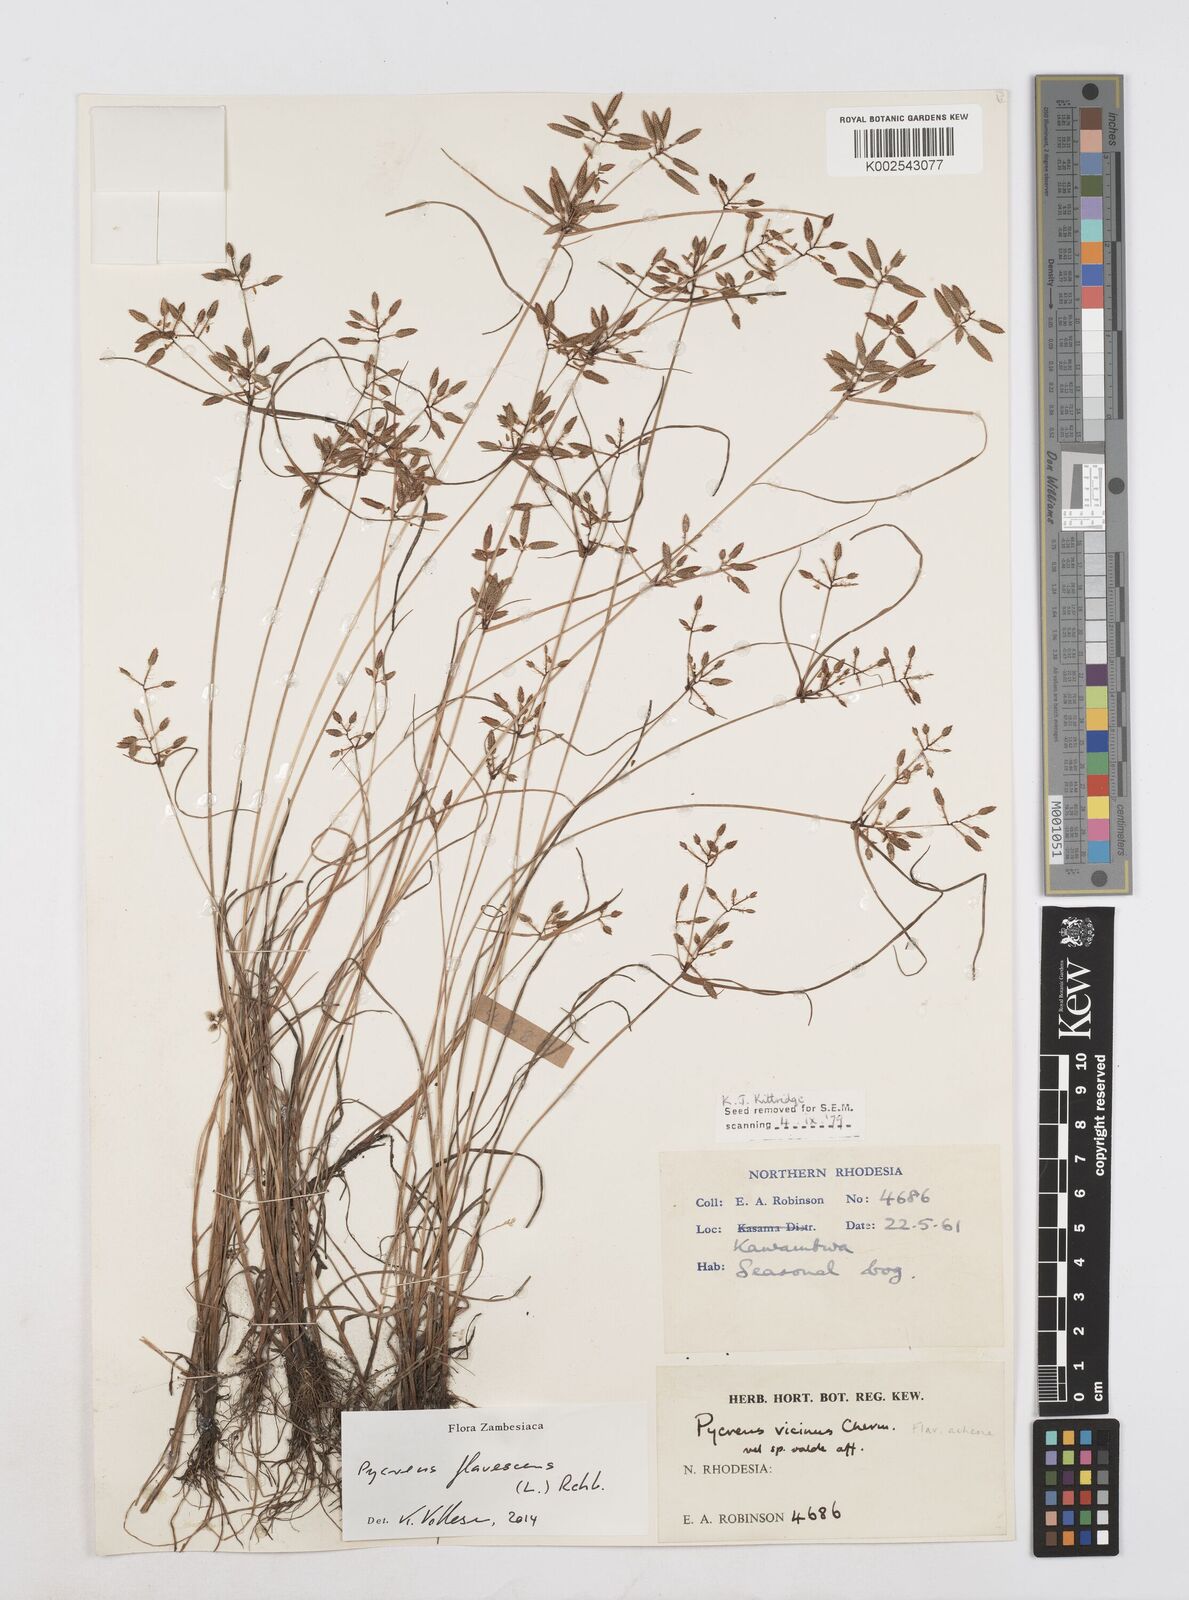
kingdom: Plantae
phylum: Tracheophyta
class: Liliopsida
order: Poales
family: Cyperaceae
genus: Cyperus
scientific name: Cyperus flavescens
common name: Yellow galingale
